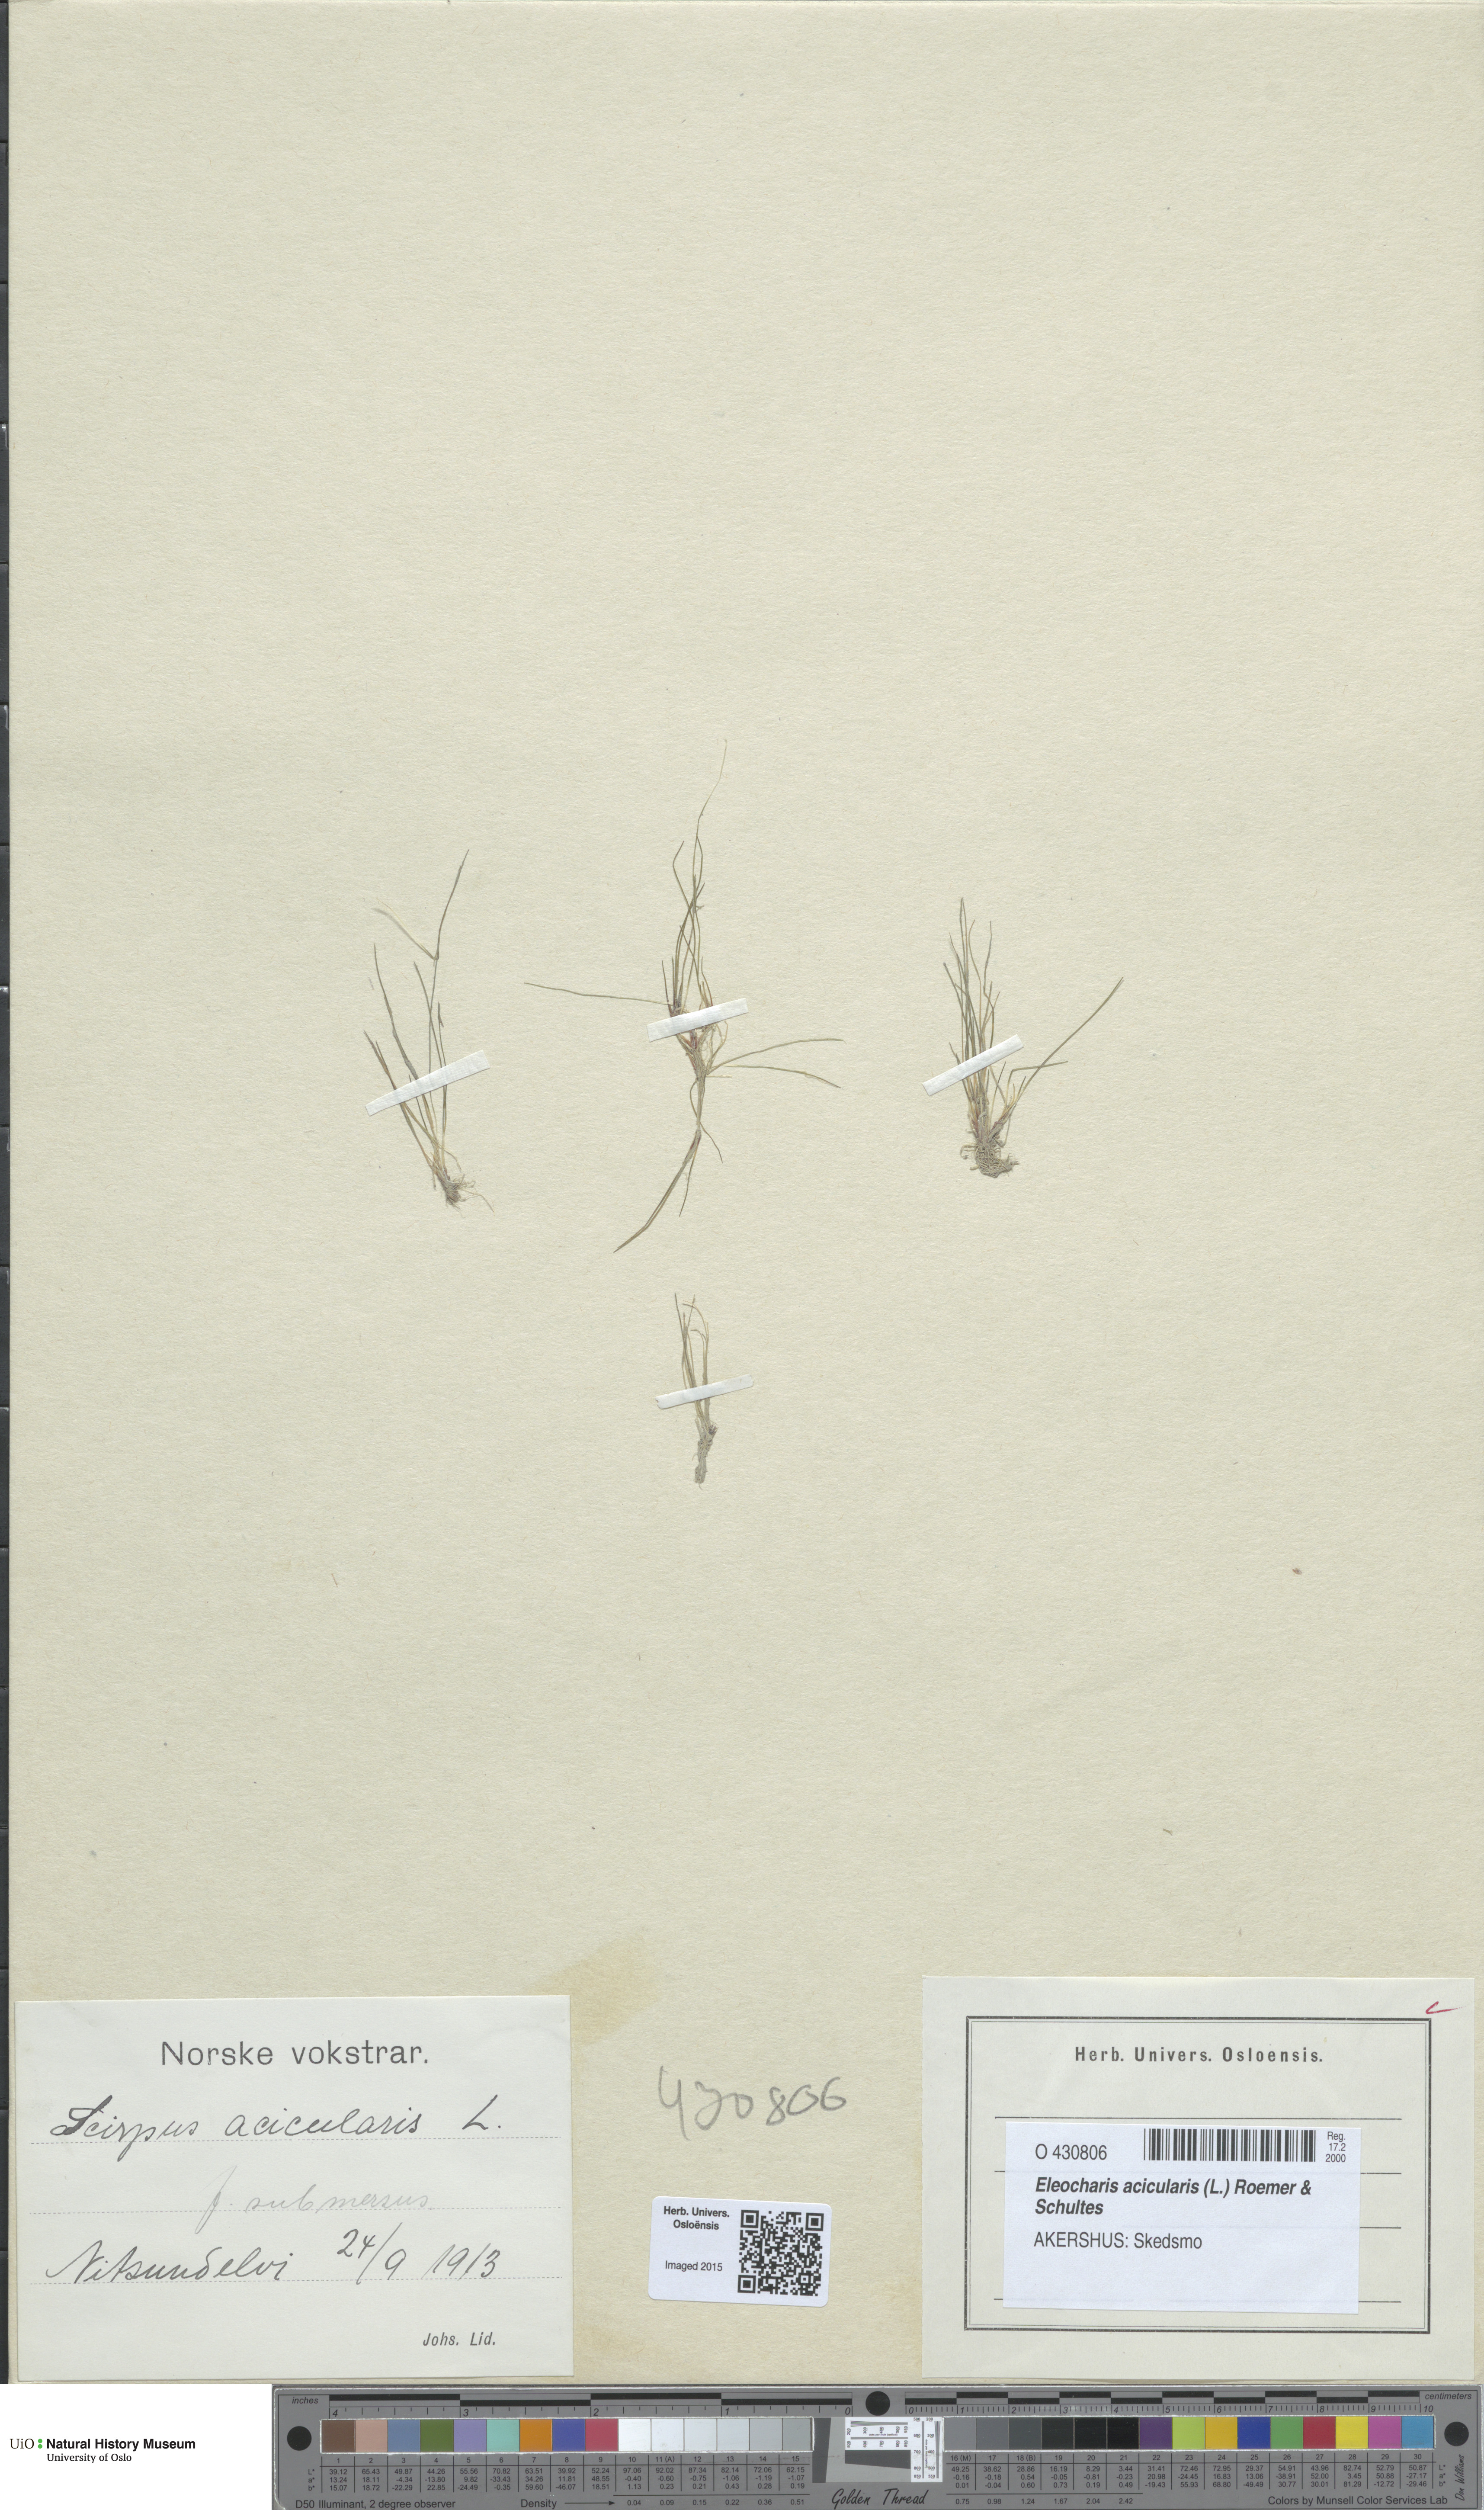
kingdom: Plantae
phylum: Tracheophyta
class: Liliopsida
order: Poales
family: Cyperaceae
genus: Eleocharis
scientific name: Eleocharis acicularis
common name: Needle spike-rush
